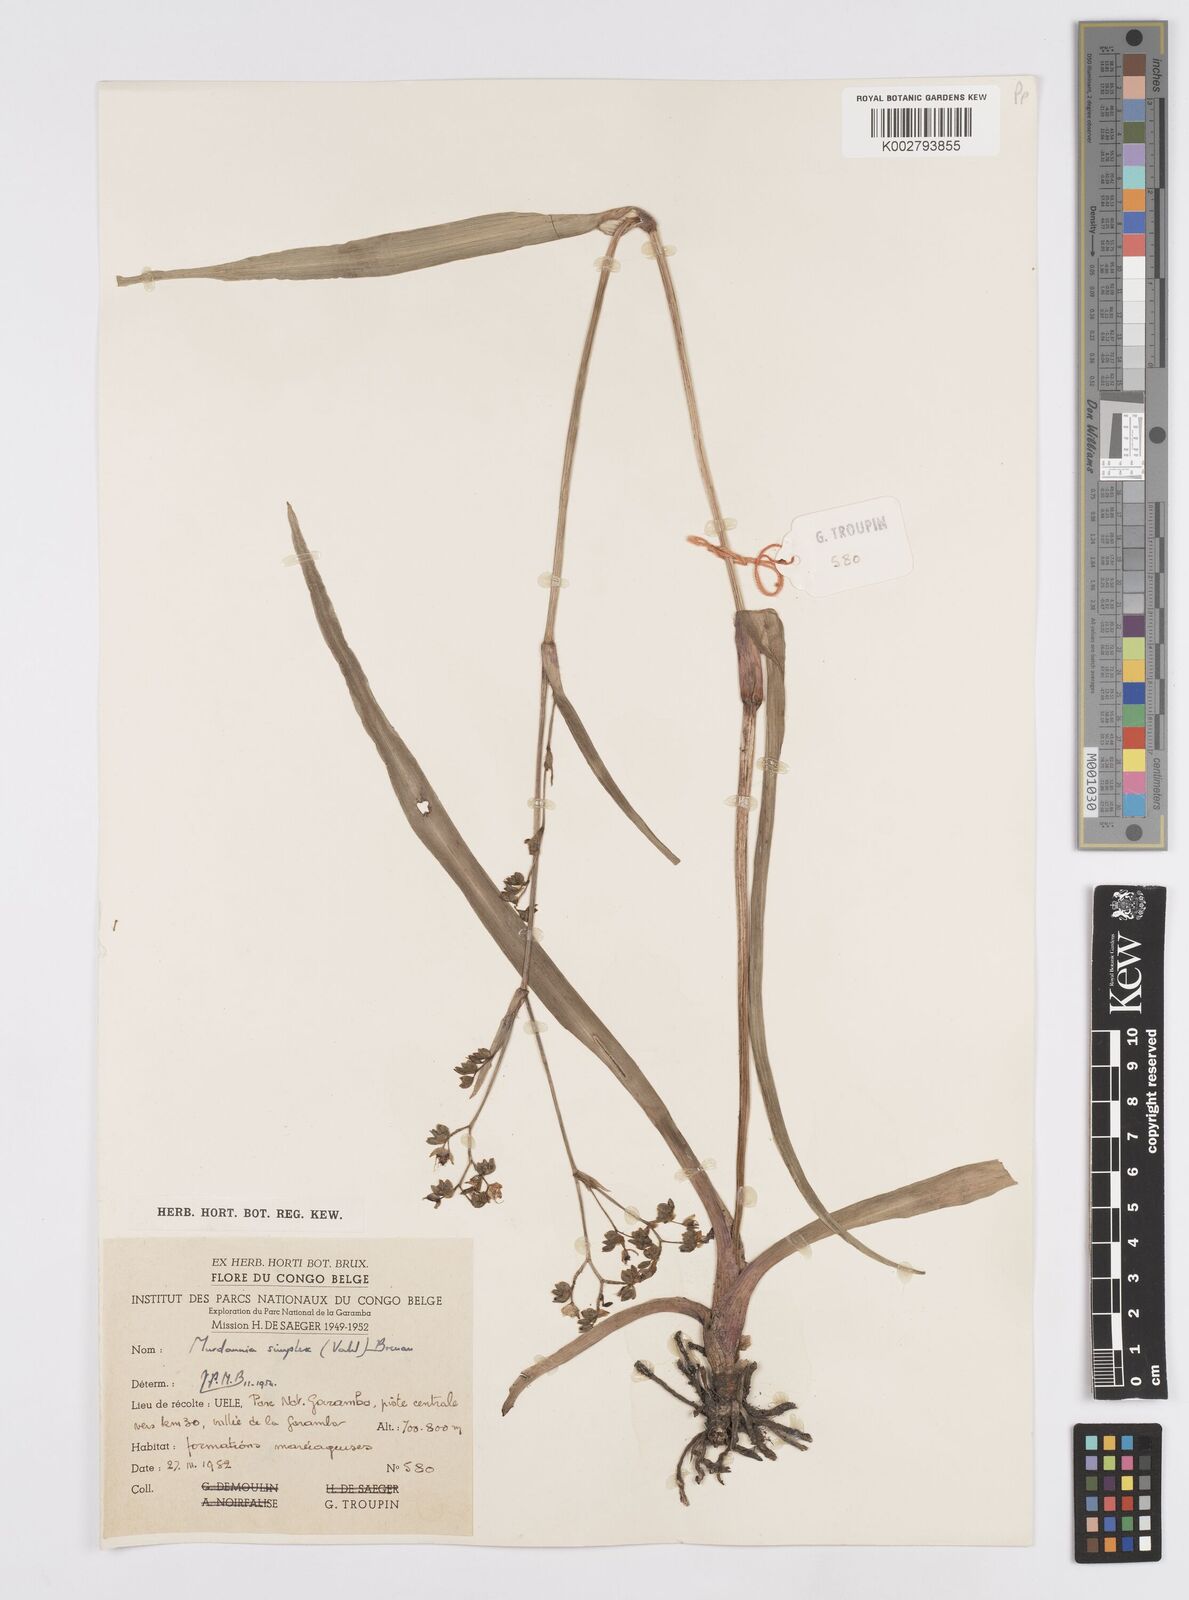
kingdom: Plantae
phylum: Tracheophyta
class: Liliopsida
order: Commelinales
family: Commelinaceae
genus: Murdannia
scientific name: Murdannia simplex
